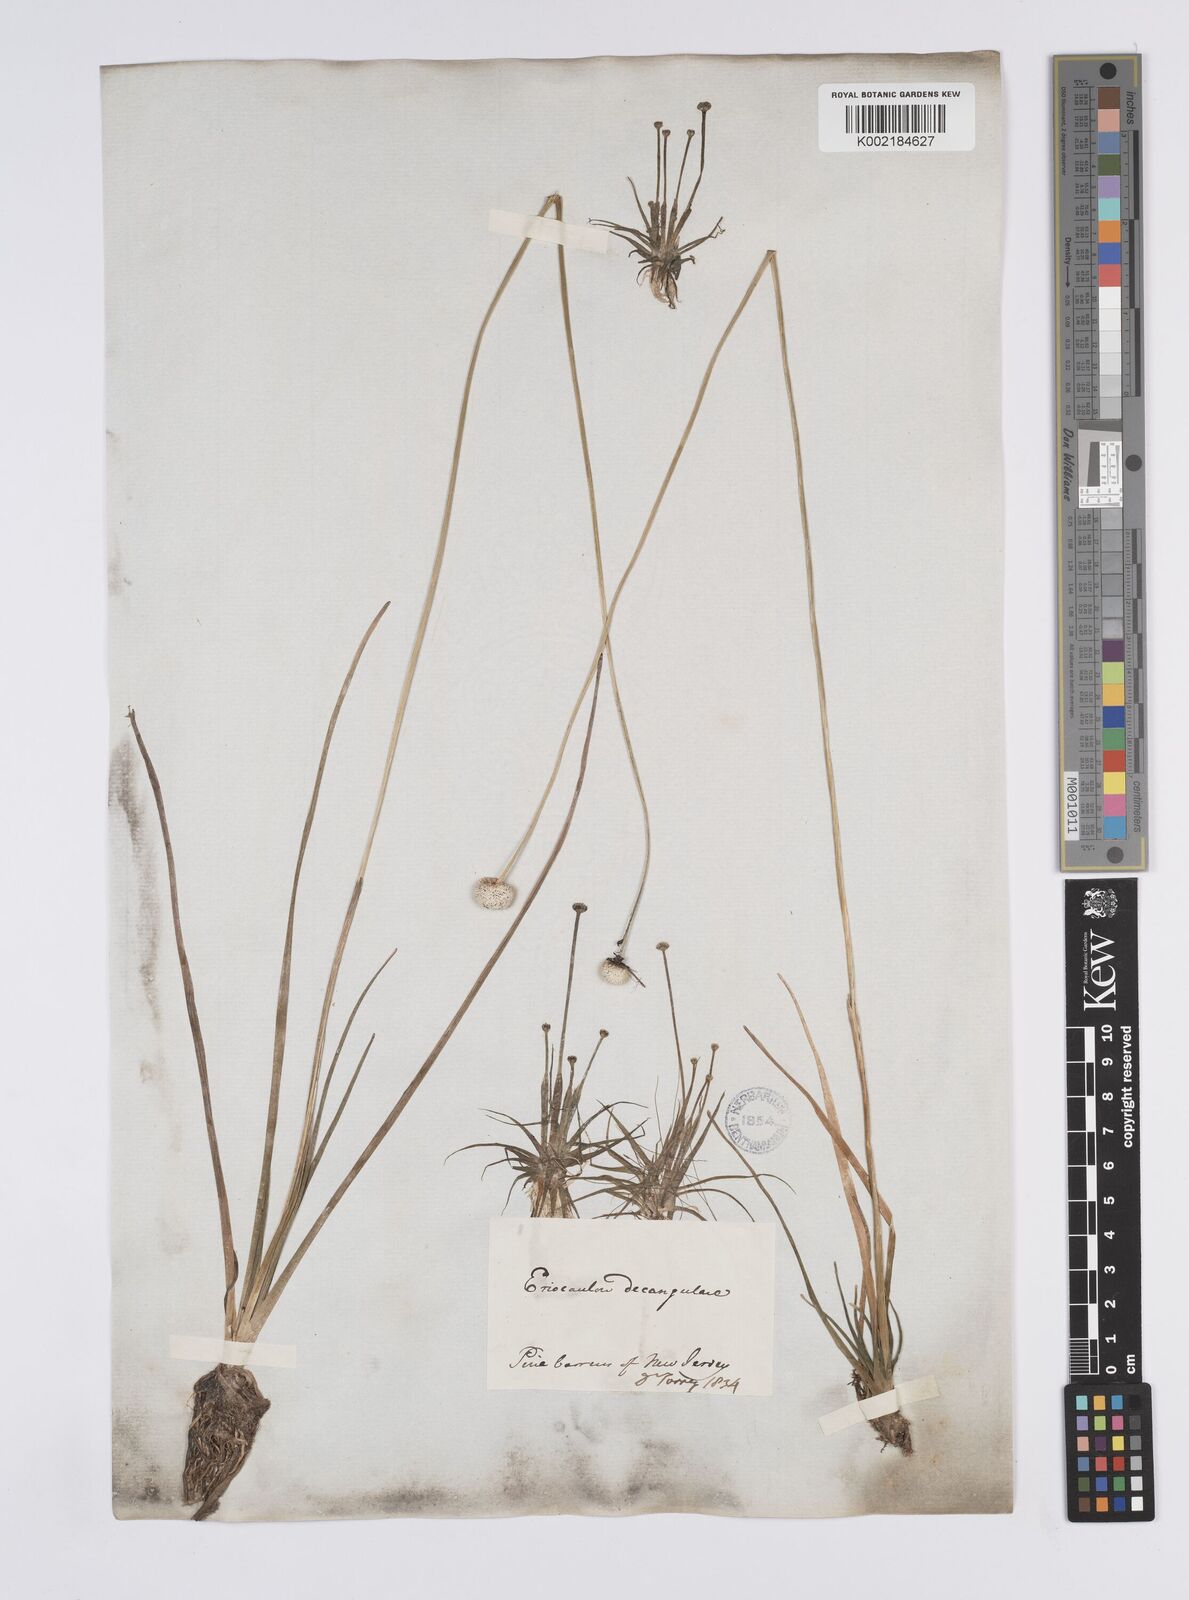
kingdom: Plantae
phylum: Tracheophyta
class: Liliopsida
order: Poales
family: Eriocaulaceae
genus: Eriocaulon
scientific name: Eriocaulon decangulare
